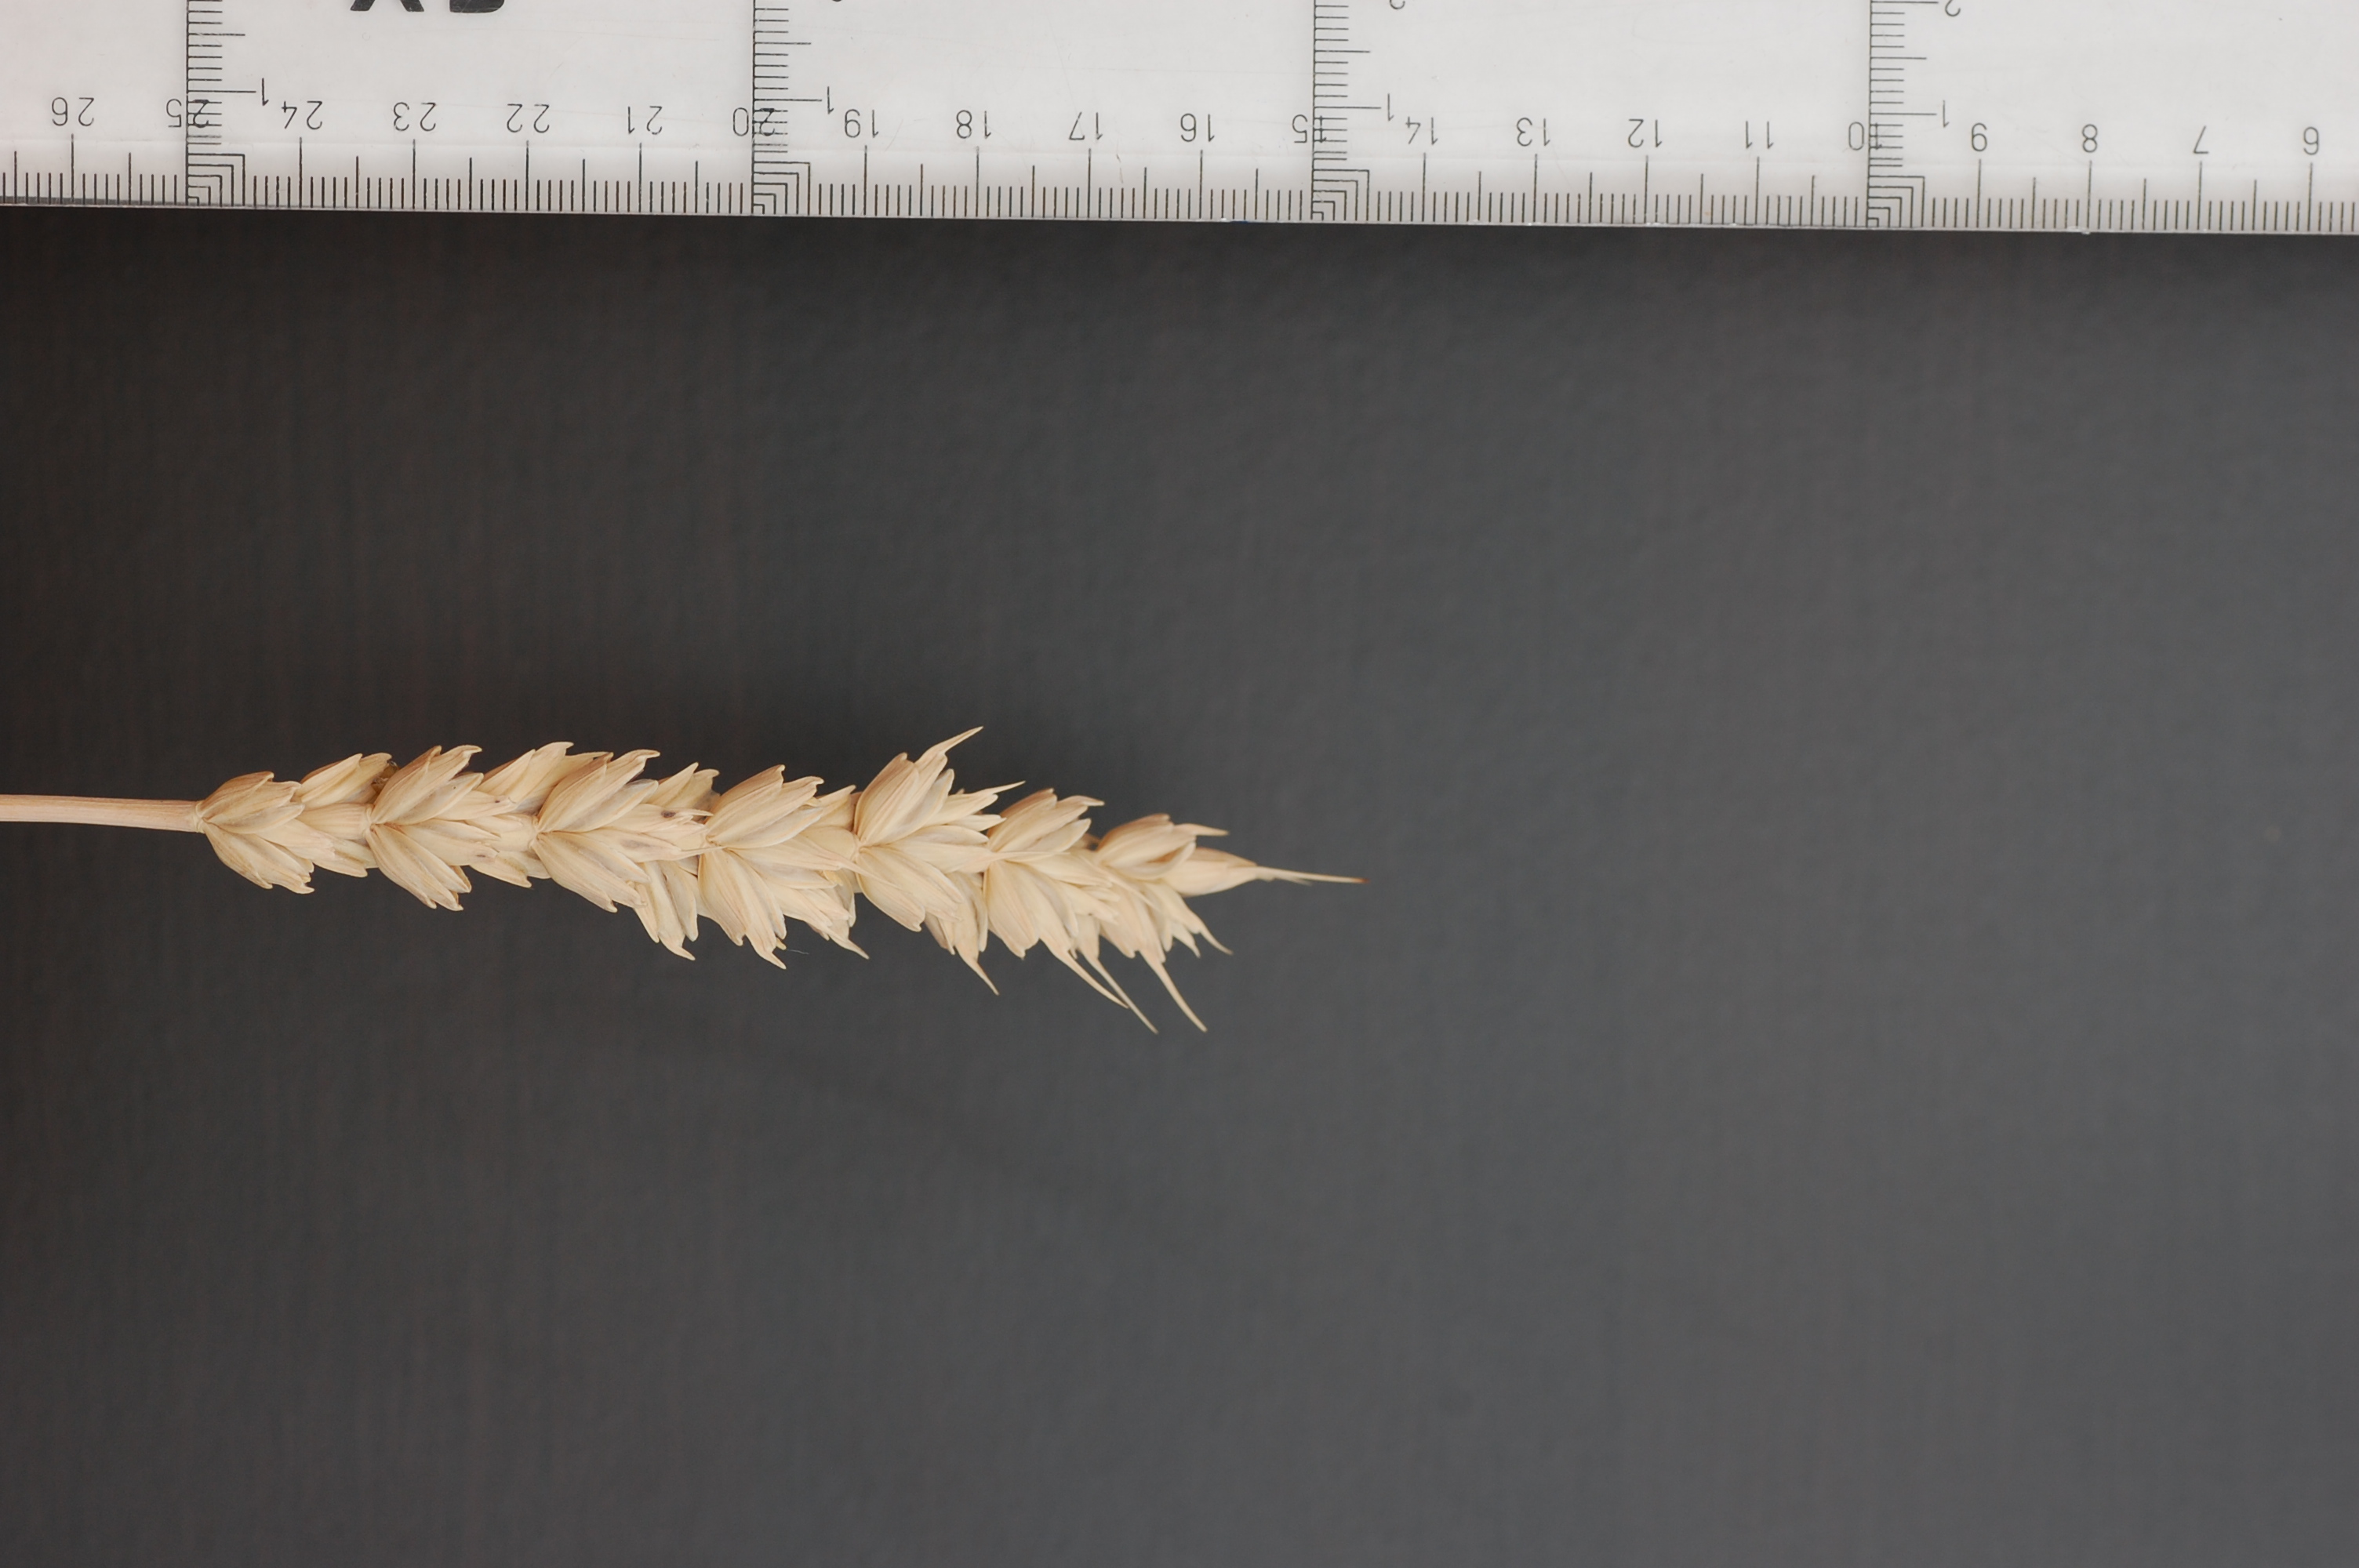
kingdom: Plantae
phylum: Tracheophyta
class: Liliopsida
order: Poales
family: Poaceae
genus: Triticum
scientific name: Triticum aestivum
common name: Common wheat
